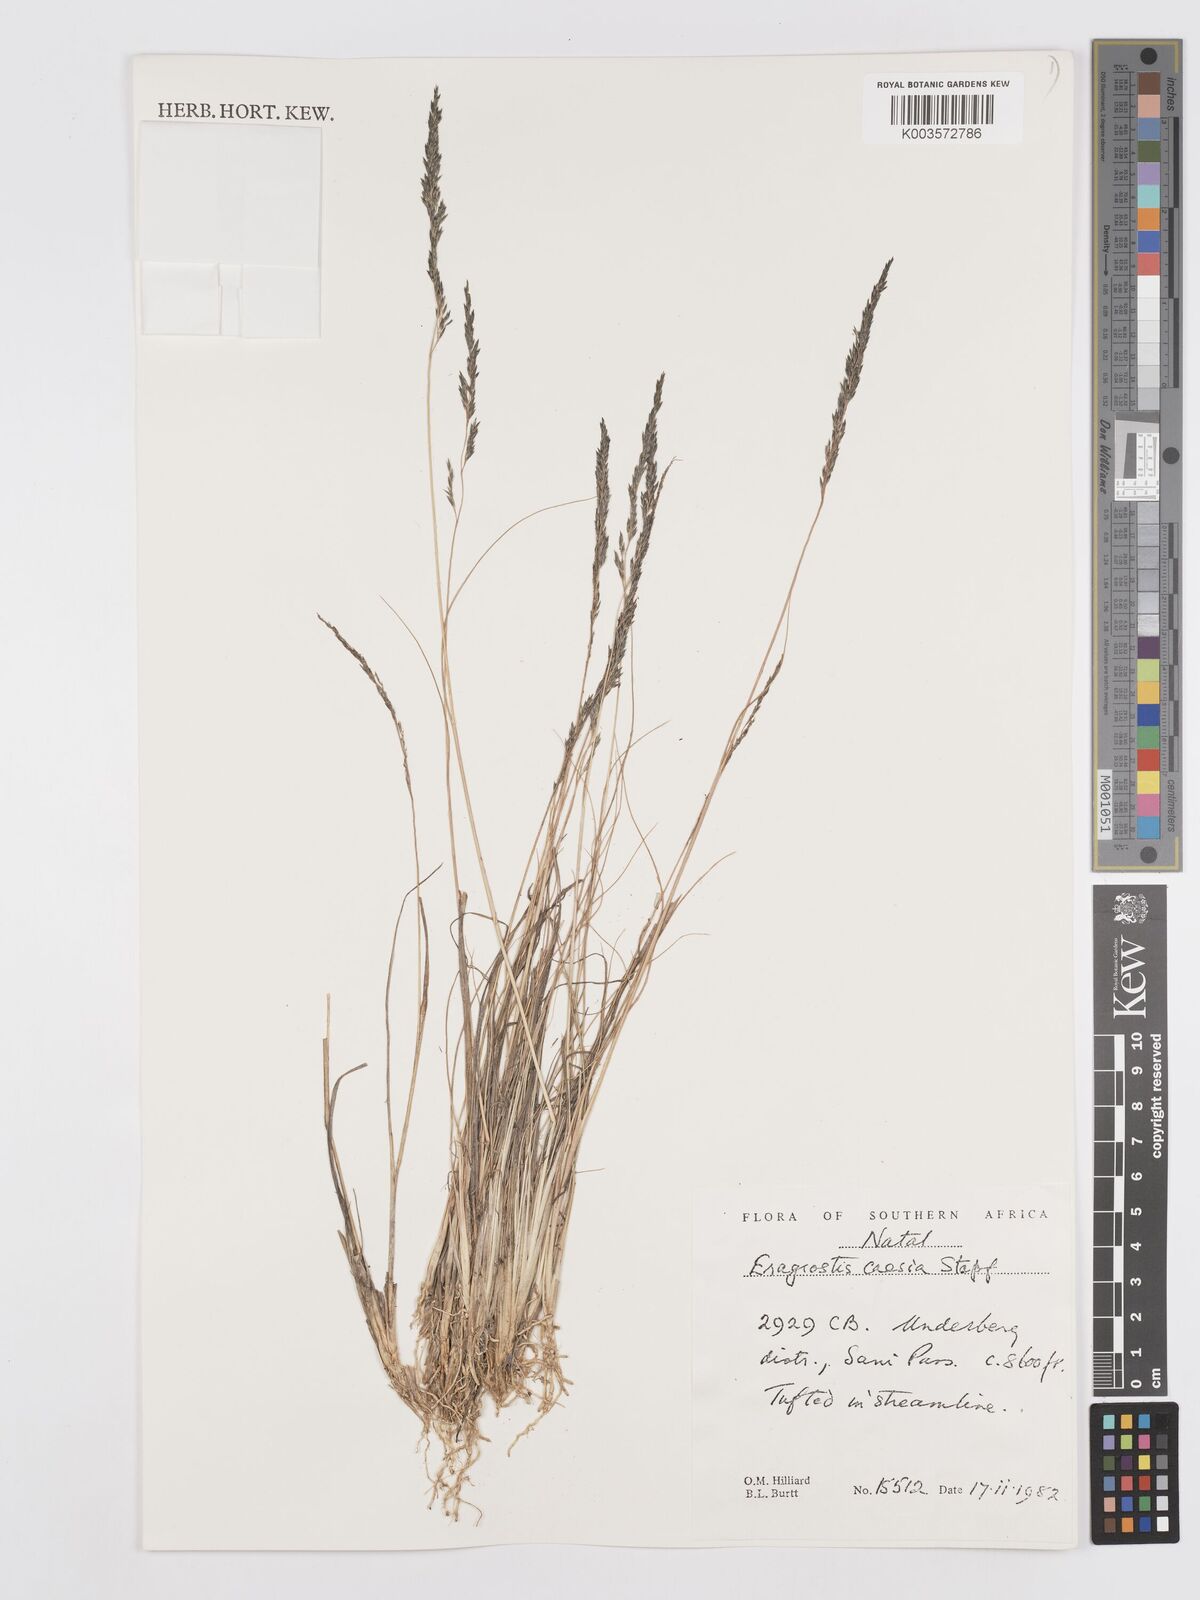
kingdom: Plantae
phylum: Tracheophyta
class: Liliopsida
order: Poales
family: Poaceae
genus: Eragrostis
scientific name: Eragrostis caesia
